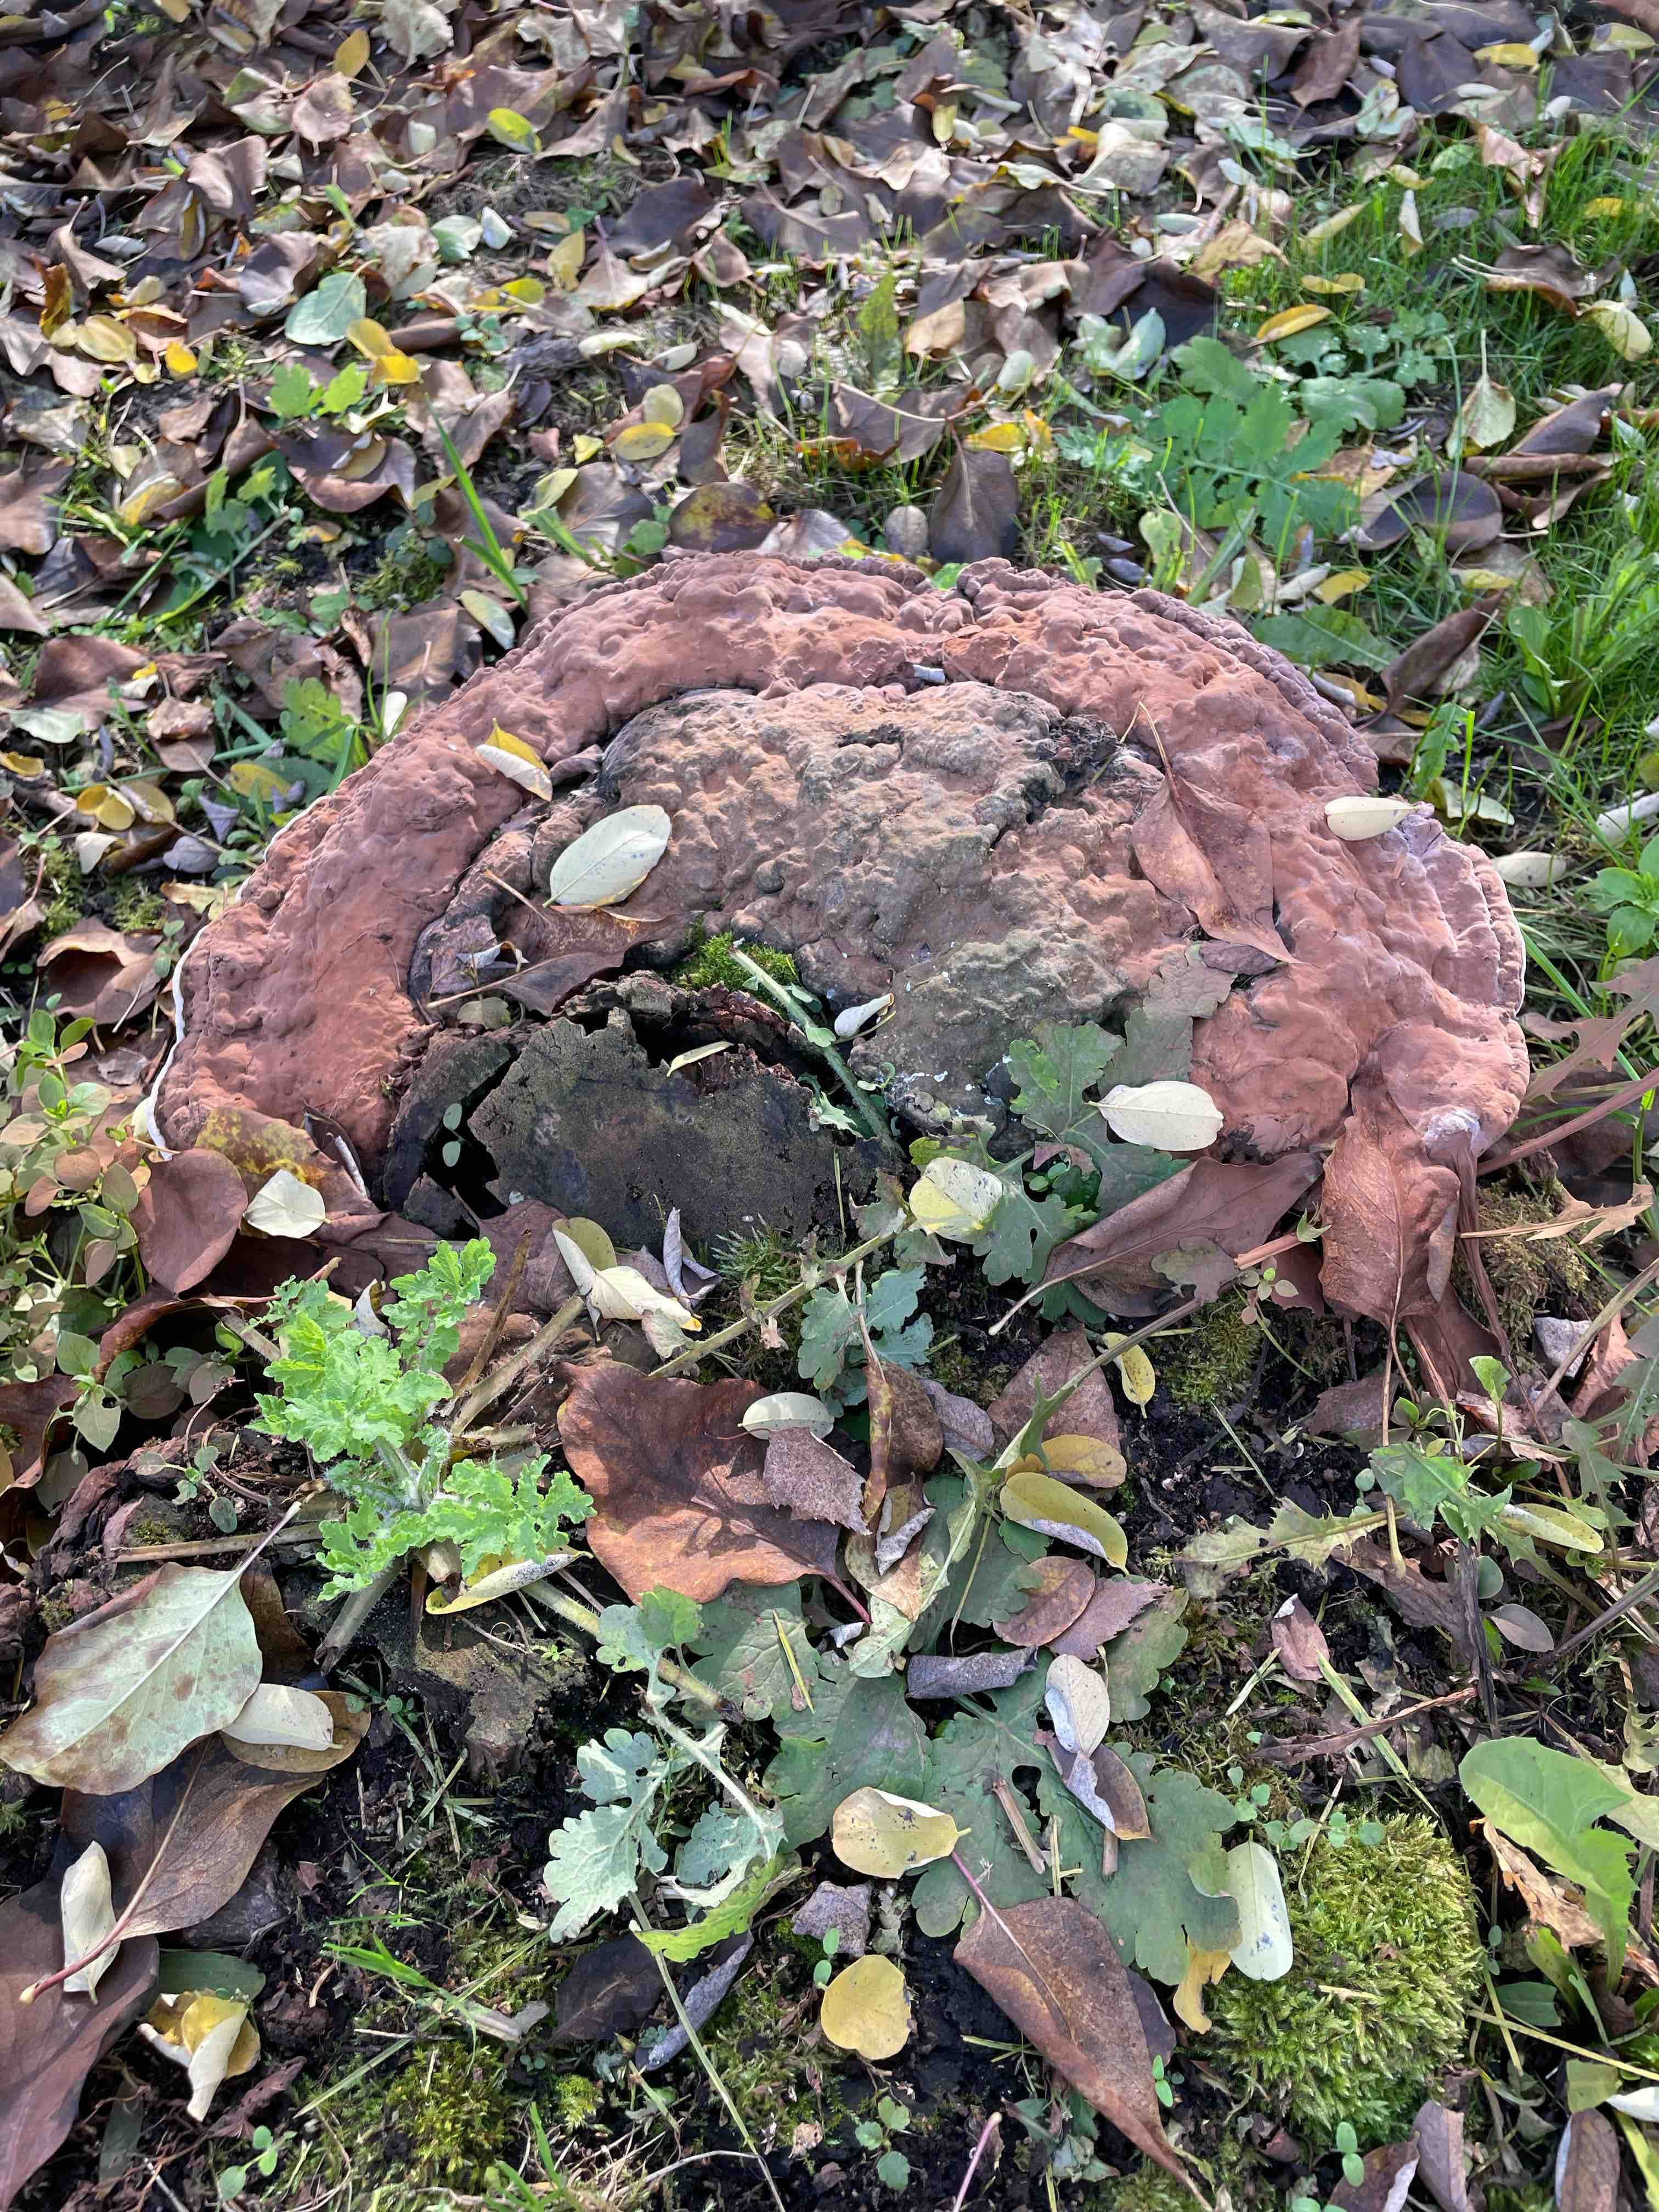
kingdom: Fungi
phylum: Basidiomycota
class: Agaricomycetes
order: Polyporales
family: Polyporaceae
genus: Ganoderma
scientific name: Ganoderma applanatum
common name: flad lakporesvamp
